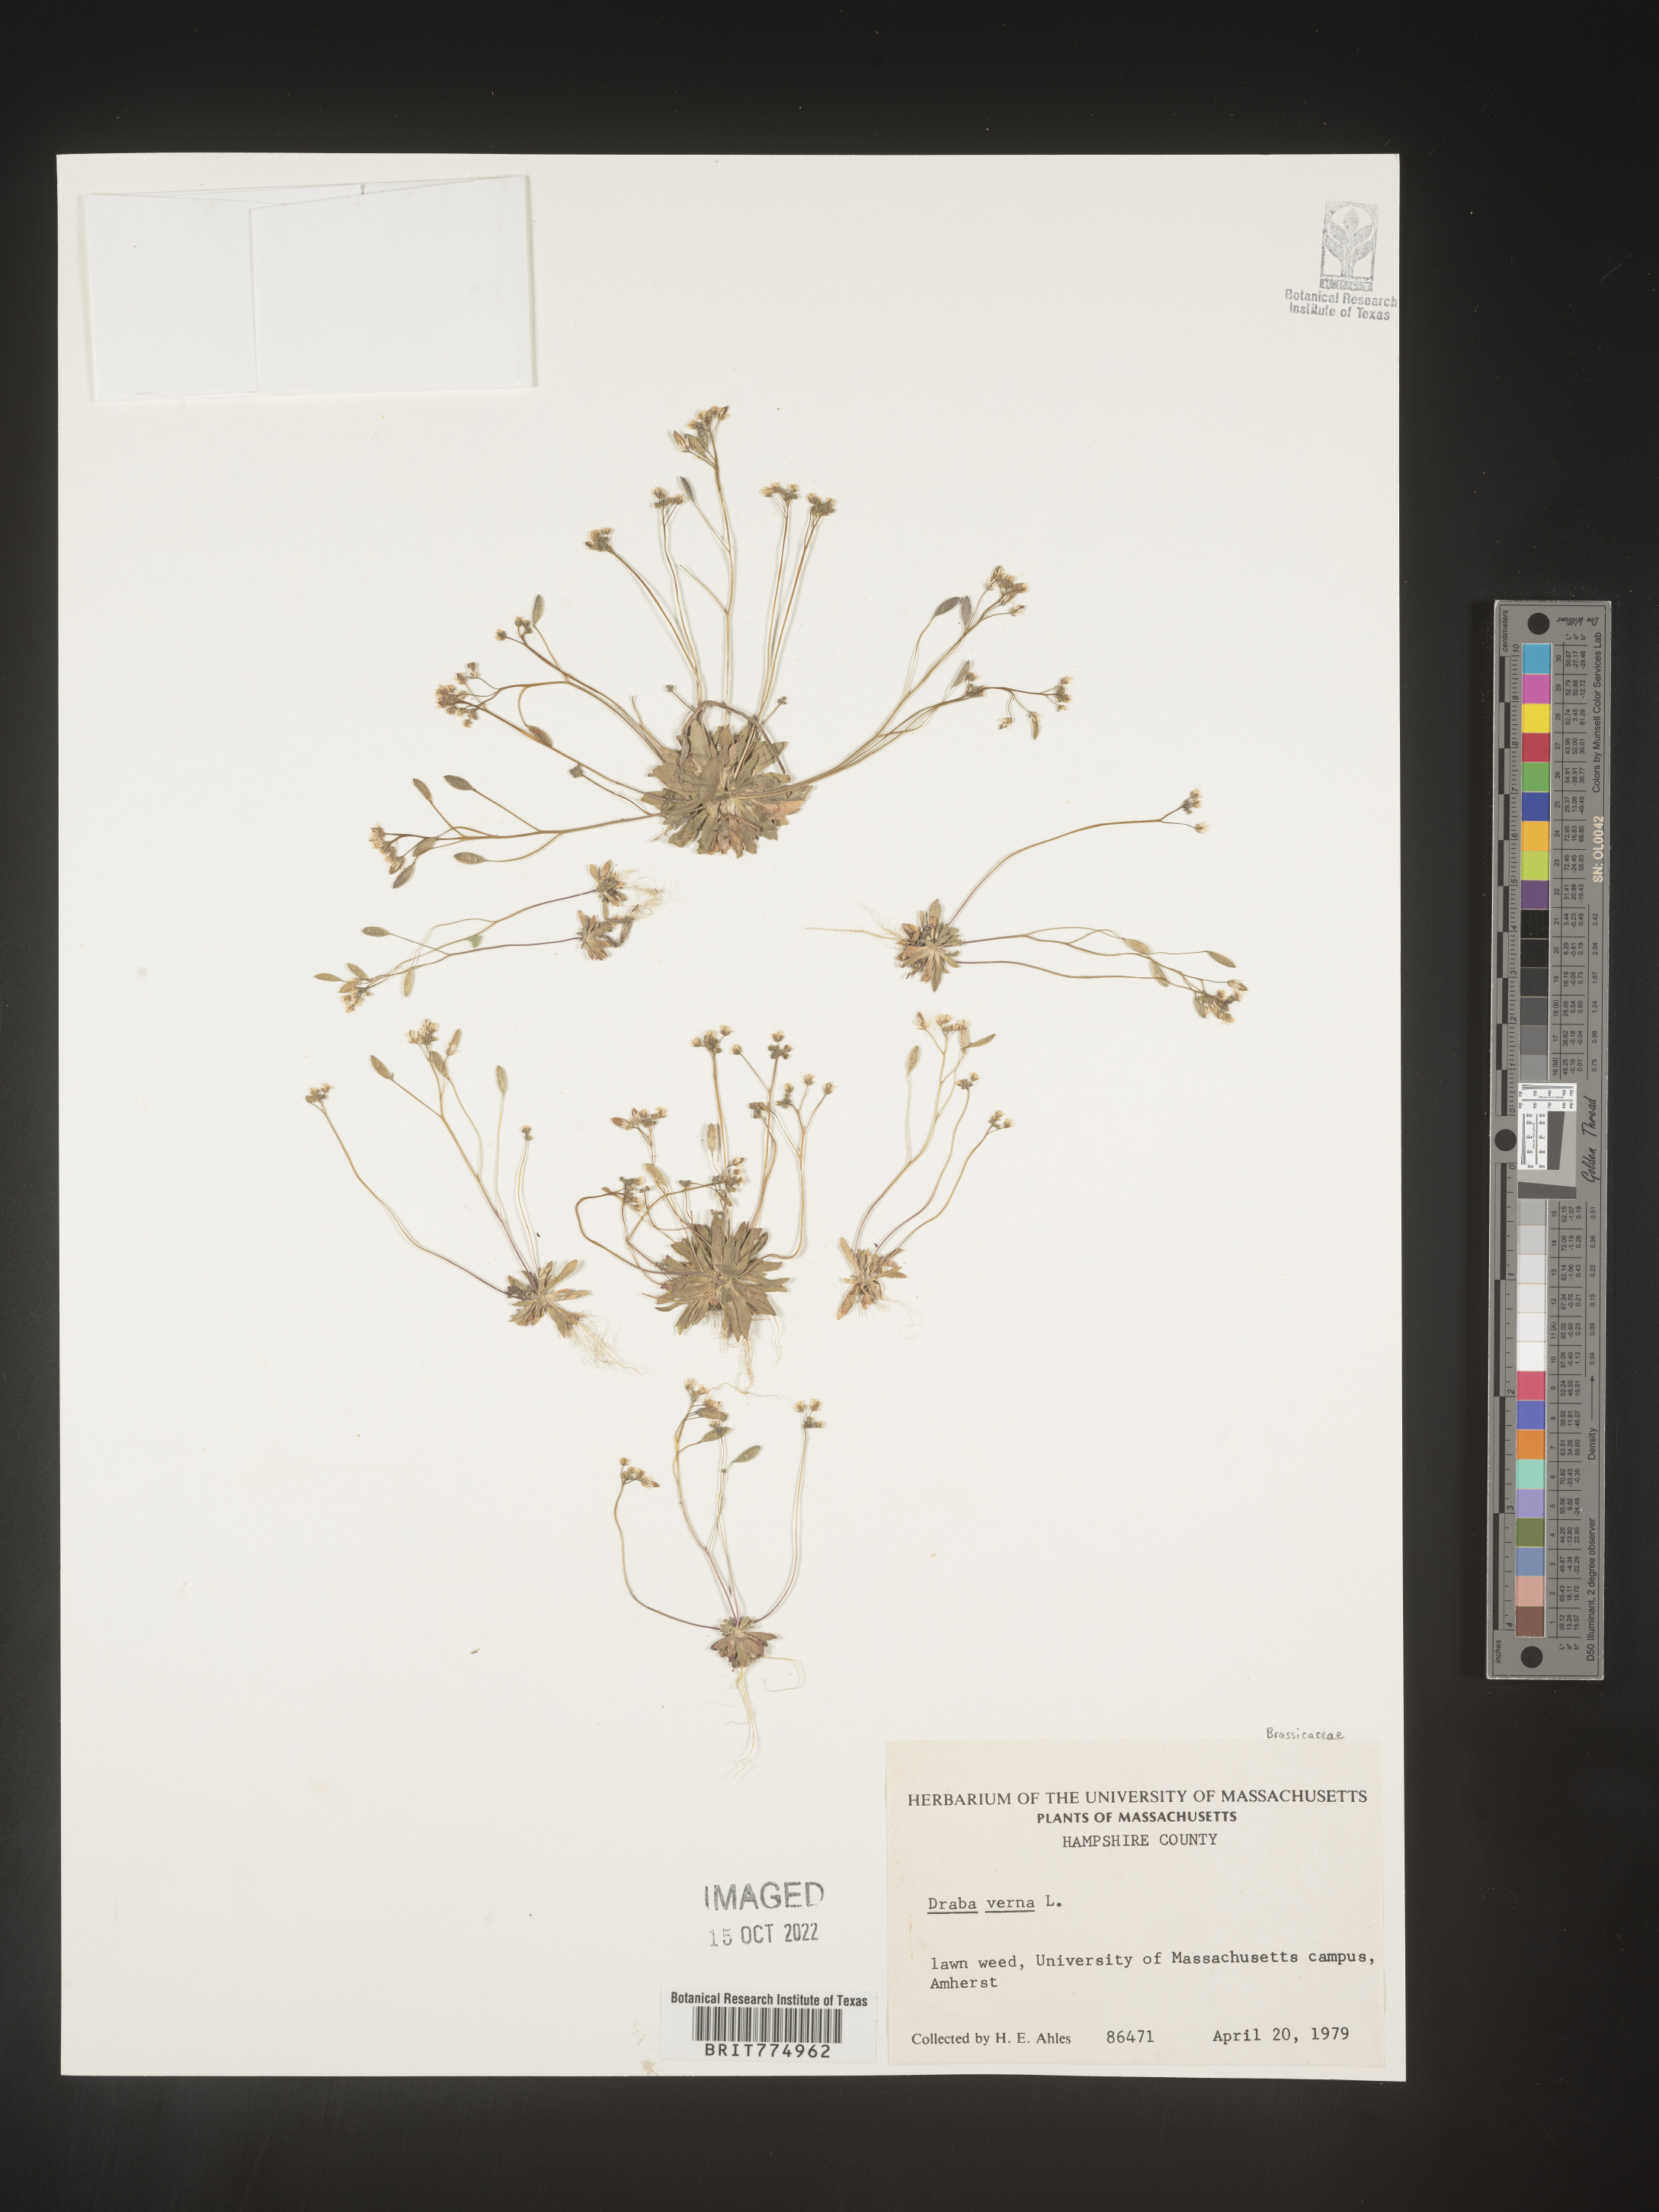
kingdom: Plantae
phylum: Tracheophyta
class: Magnoliopsida
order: Brassicales
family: Brassicaceae
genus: Draba
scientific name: Draba verna
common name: Spring draba
